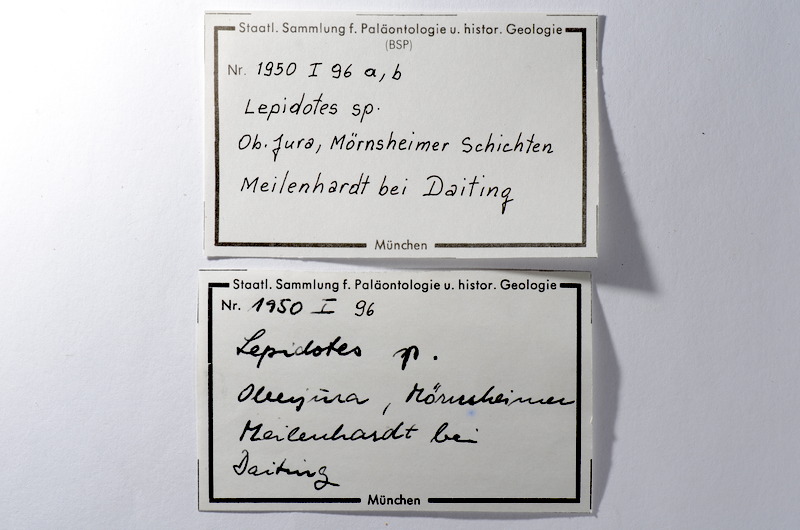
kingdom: Animalia
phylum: Chordata
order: Lepisosteiformes
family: Lepidotidae
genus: Lepidotes
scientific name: Lepidotes
